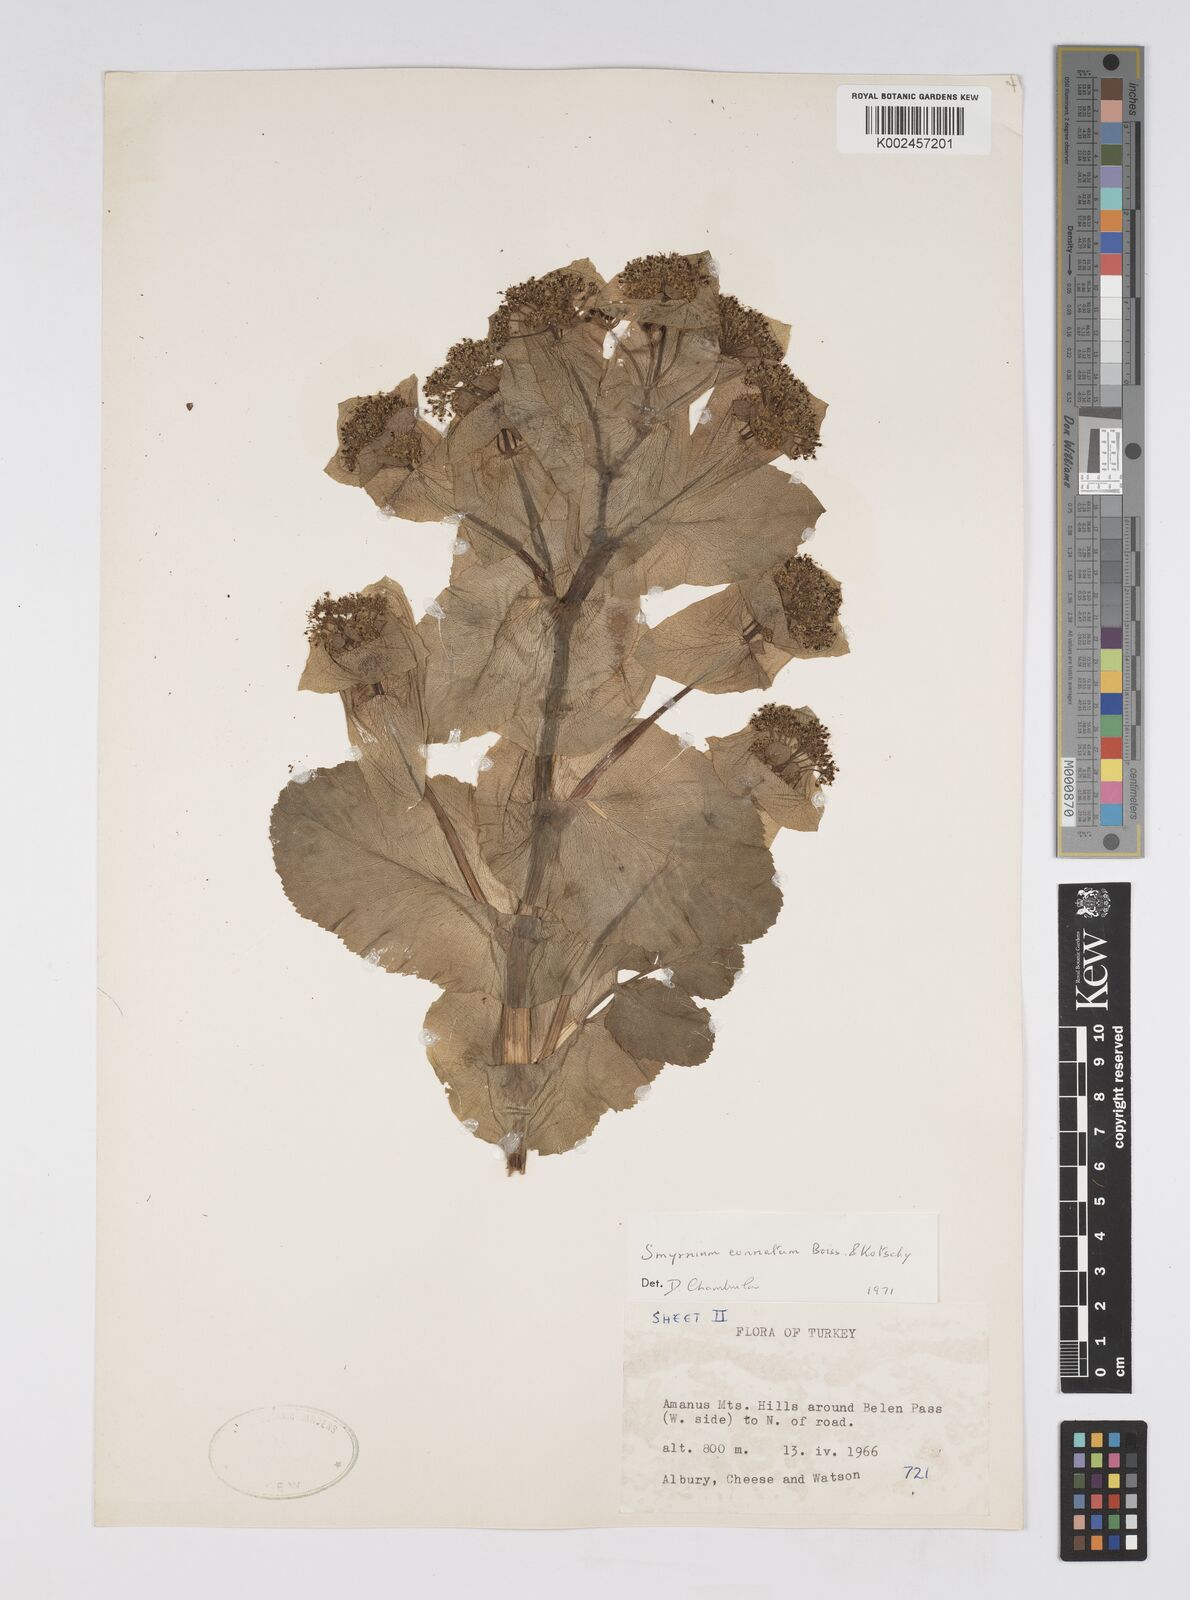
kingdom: Plantae
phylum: Tracheophyta
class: Magnoliopsida
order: Apiales
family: Apiaceae
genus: Smyrnium
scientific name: Smyrnium connatum
